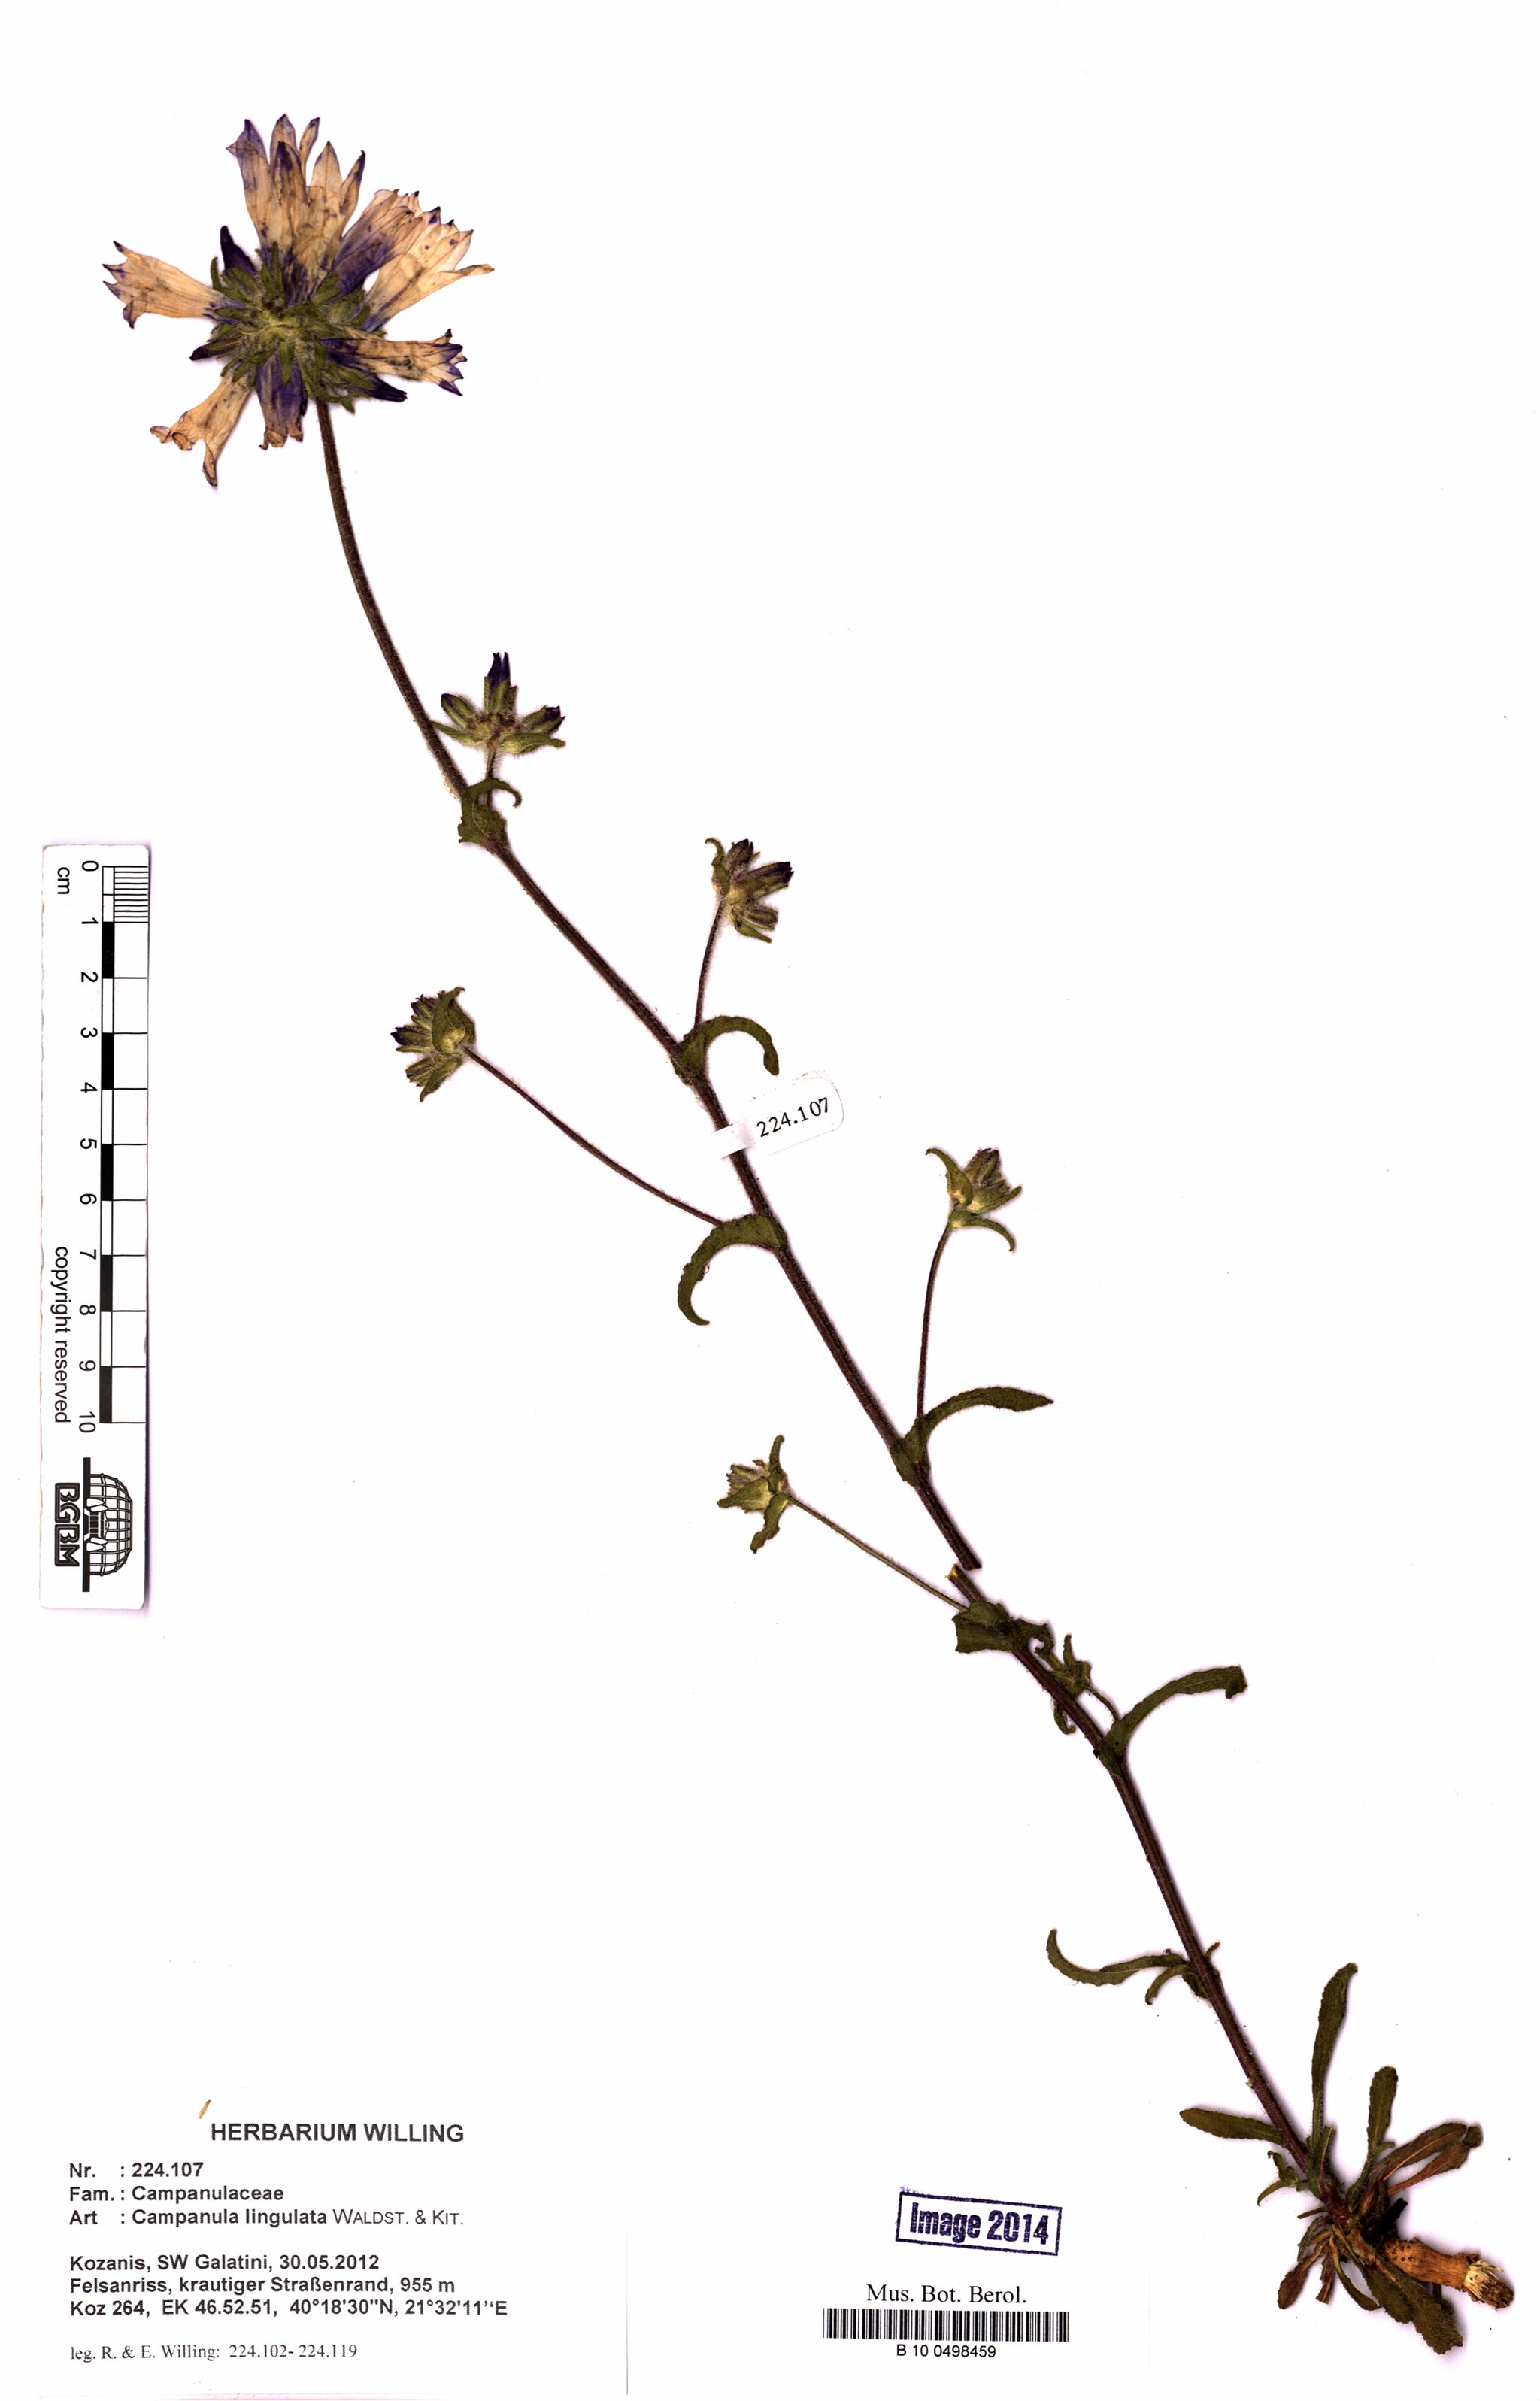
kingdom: Plantae
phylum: Tracheophyta
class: Magnoliopsida
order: Asterales
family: Campanulaceae
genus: Campanula
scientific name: Campanula lingulata
